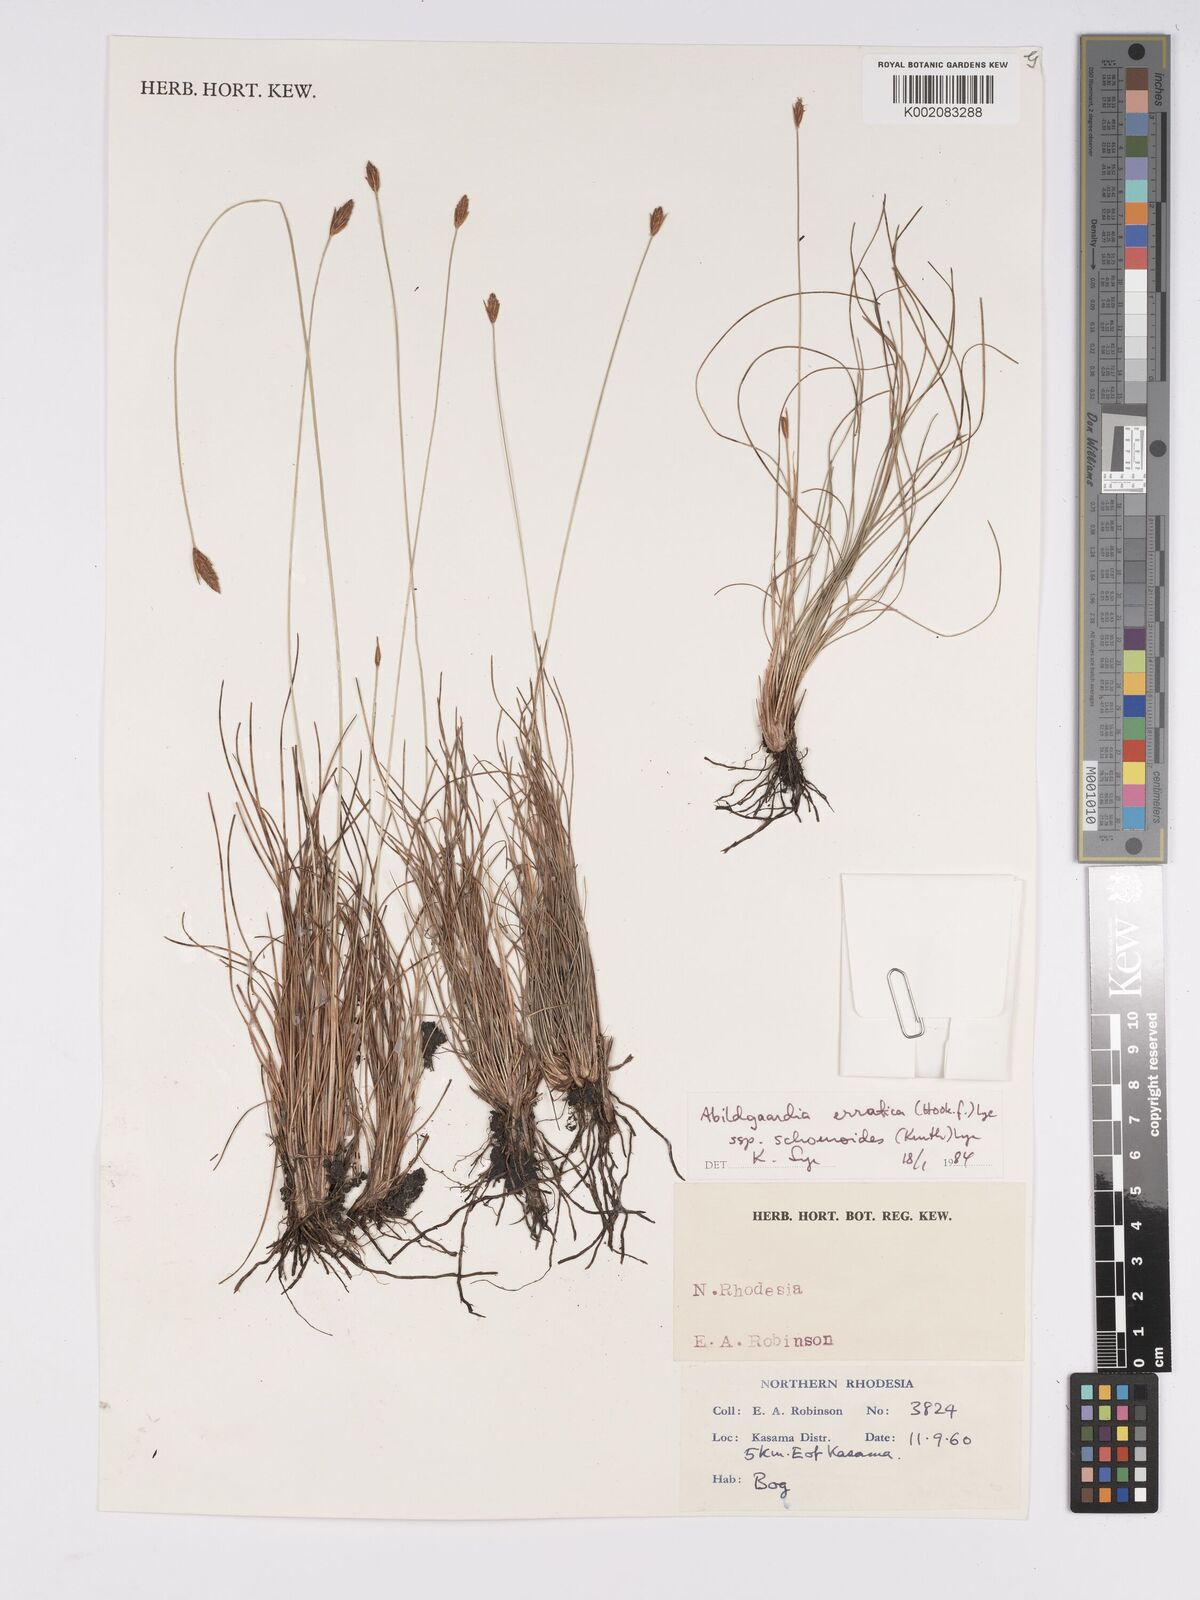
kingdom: Plantae
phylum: Tracheophyta
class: Liliopsida
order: Poales
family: Cyperaceae
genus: Bulbostylis
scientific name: Bulbostylis schoenoides
